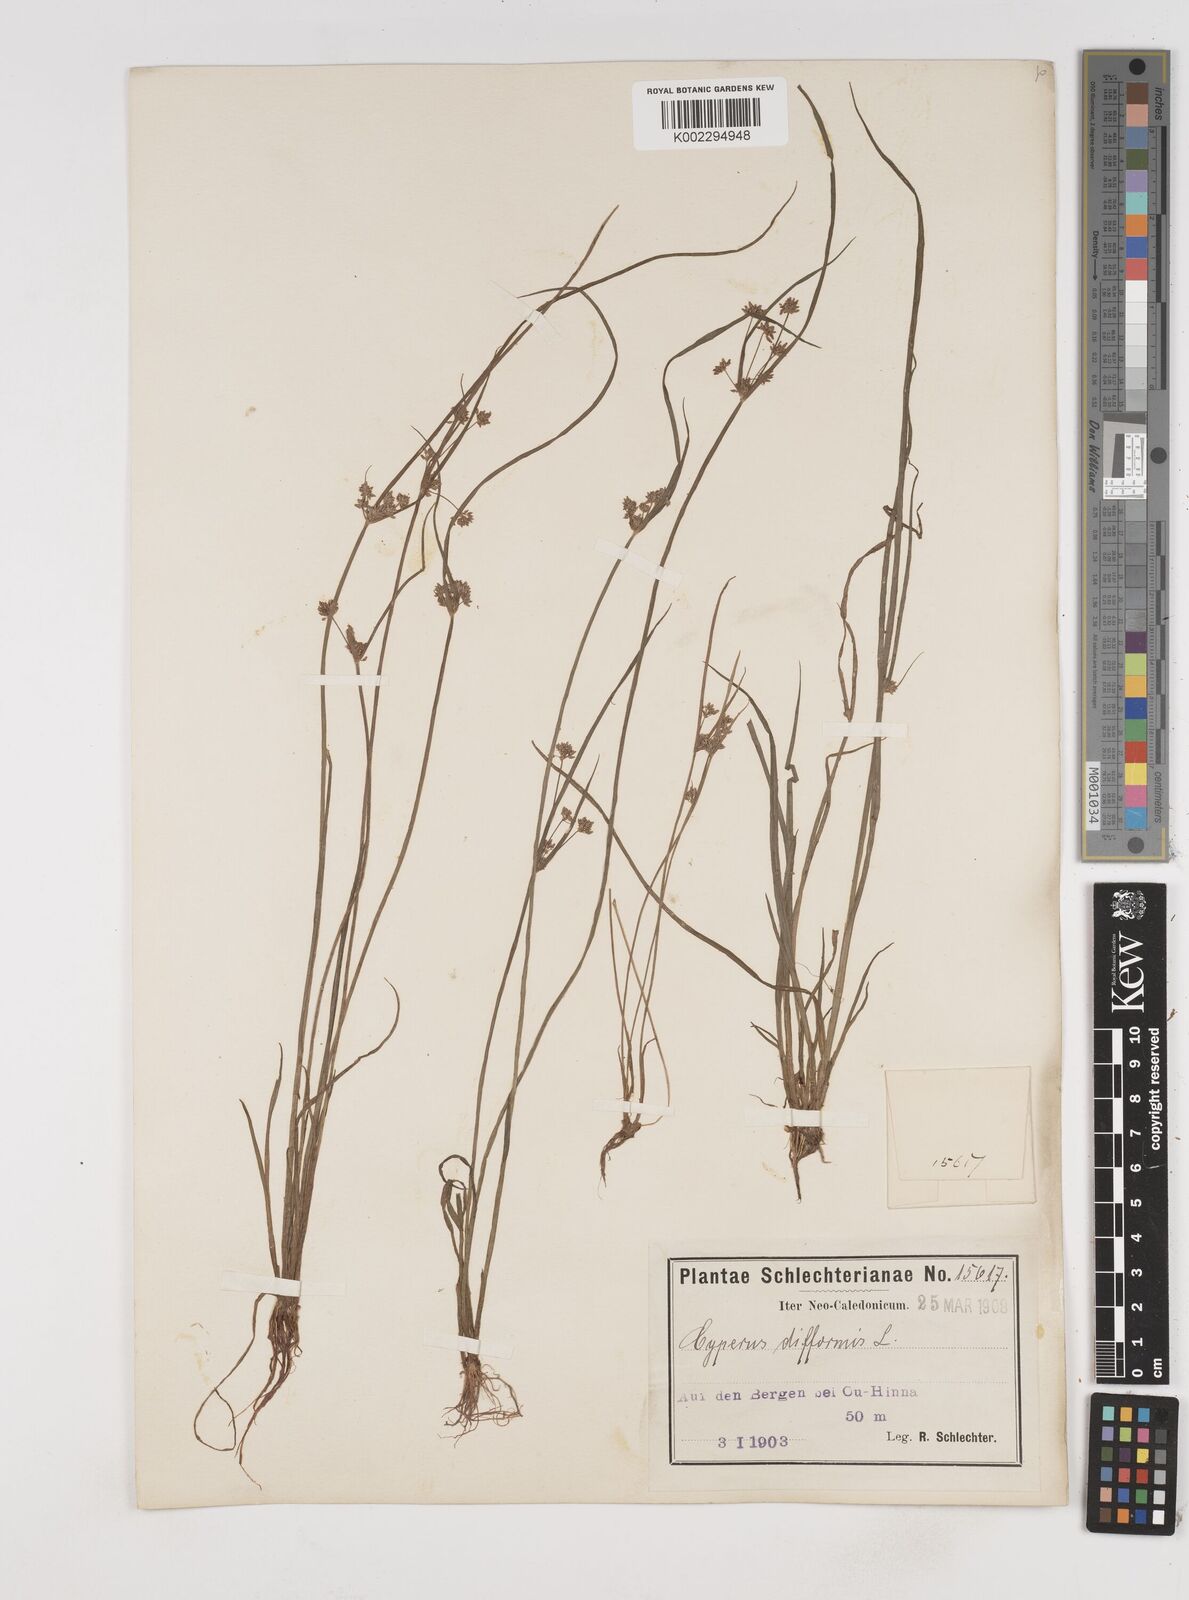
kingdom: Plantae
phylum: Tracheophyta
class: Liliopsida
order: Poales
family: Cyperaceae
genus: Cyperus
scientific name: Cyperus difformis
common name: Variable flatsedge
